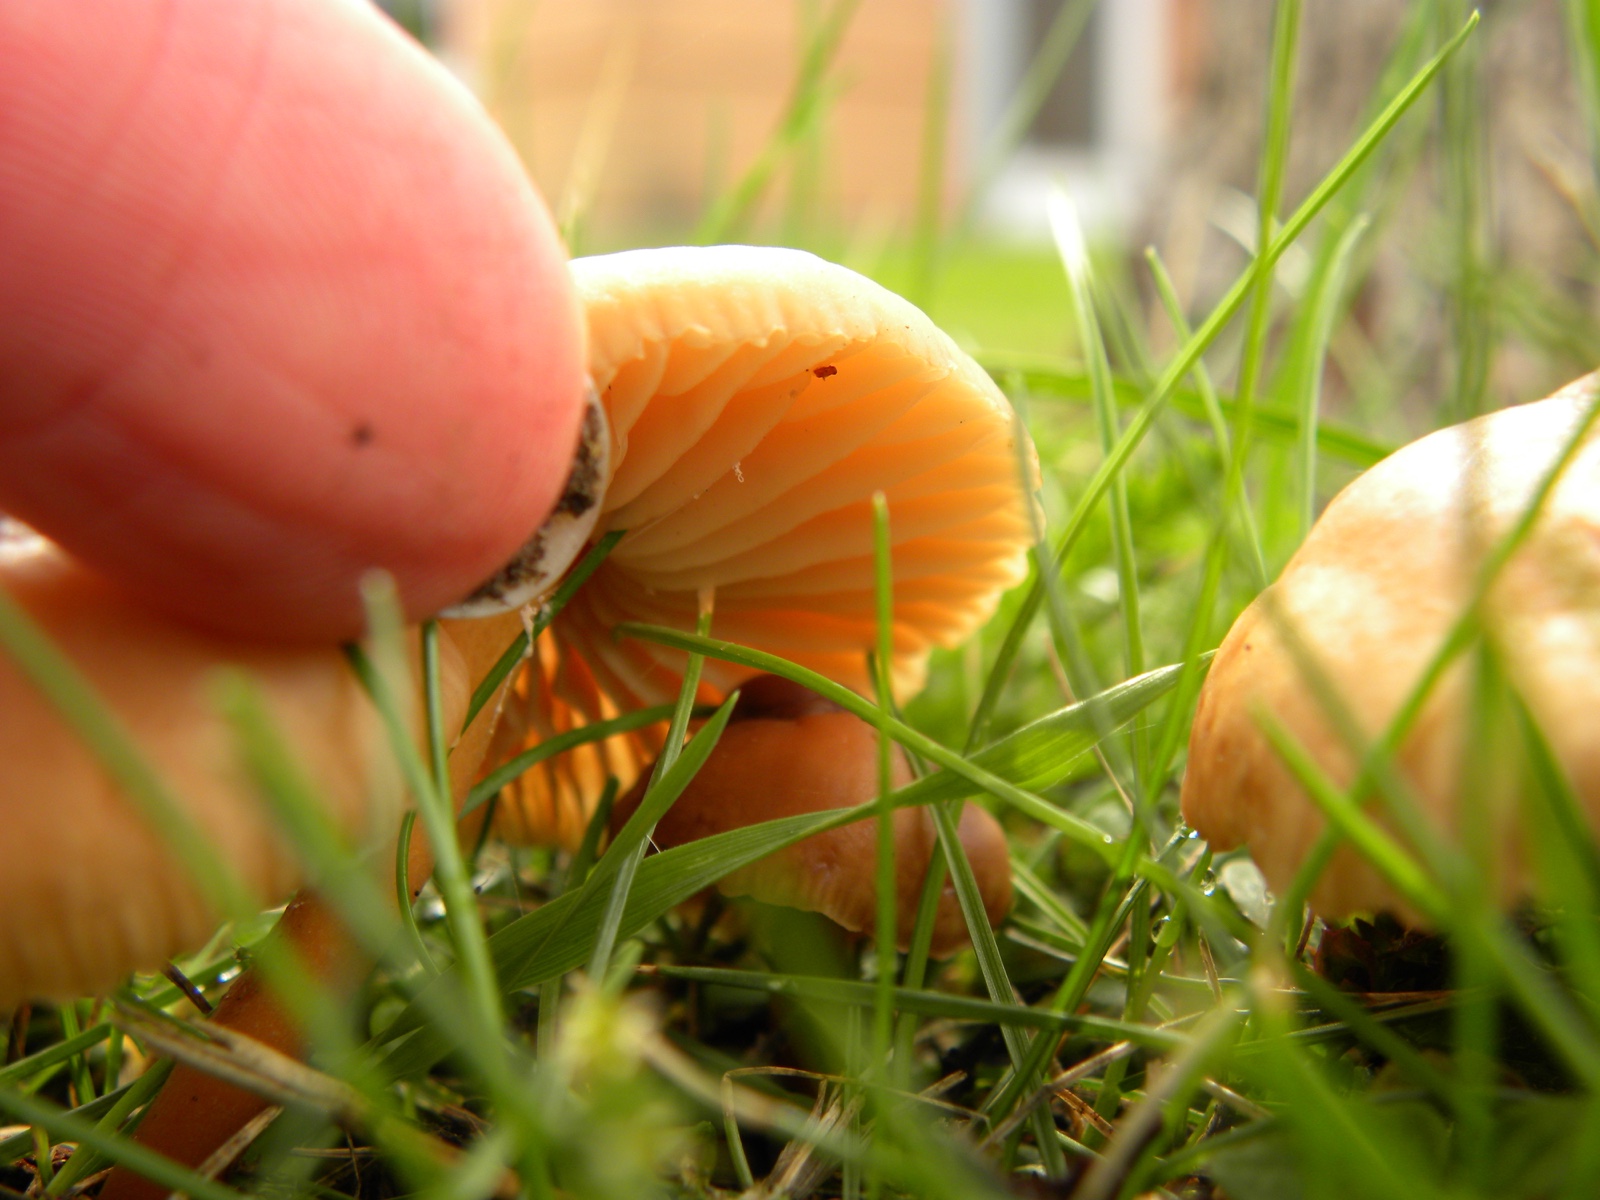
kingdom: Fungi
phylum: Basidiomycota
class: Agaricomycetes
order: Agaricales
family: Marasmiaceae
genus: Marasmius
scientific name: Marasmius oreades
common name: elledans-bruskhat
